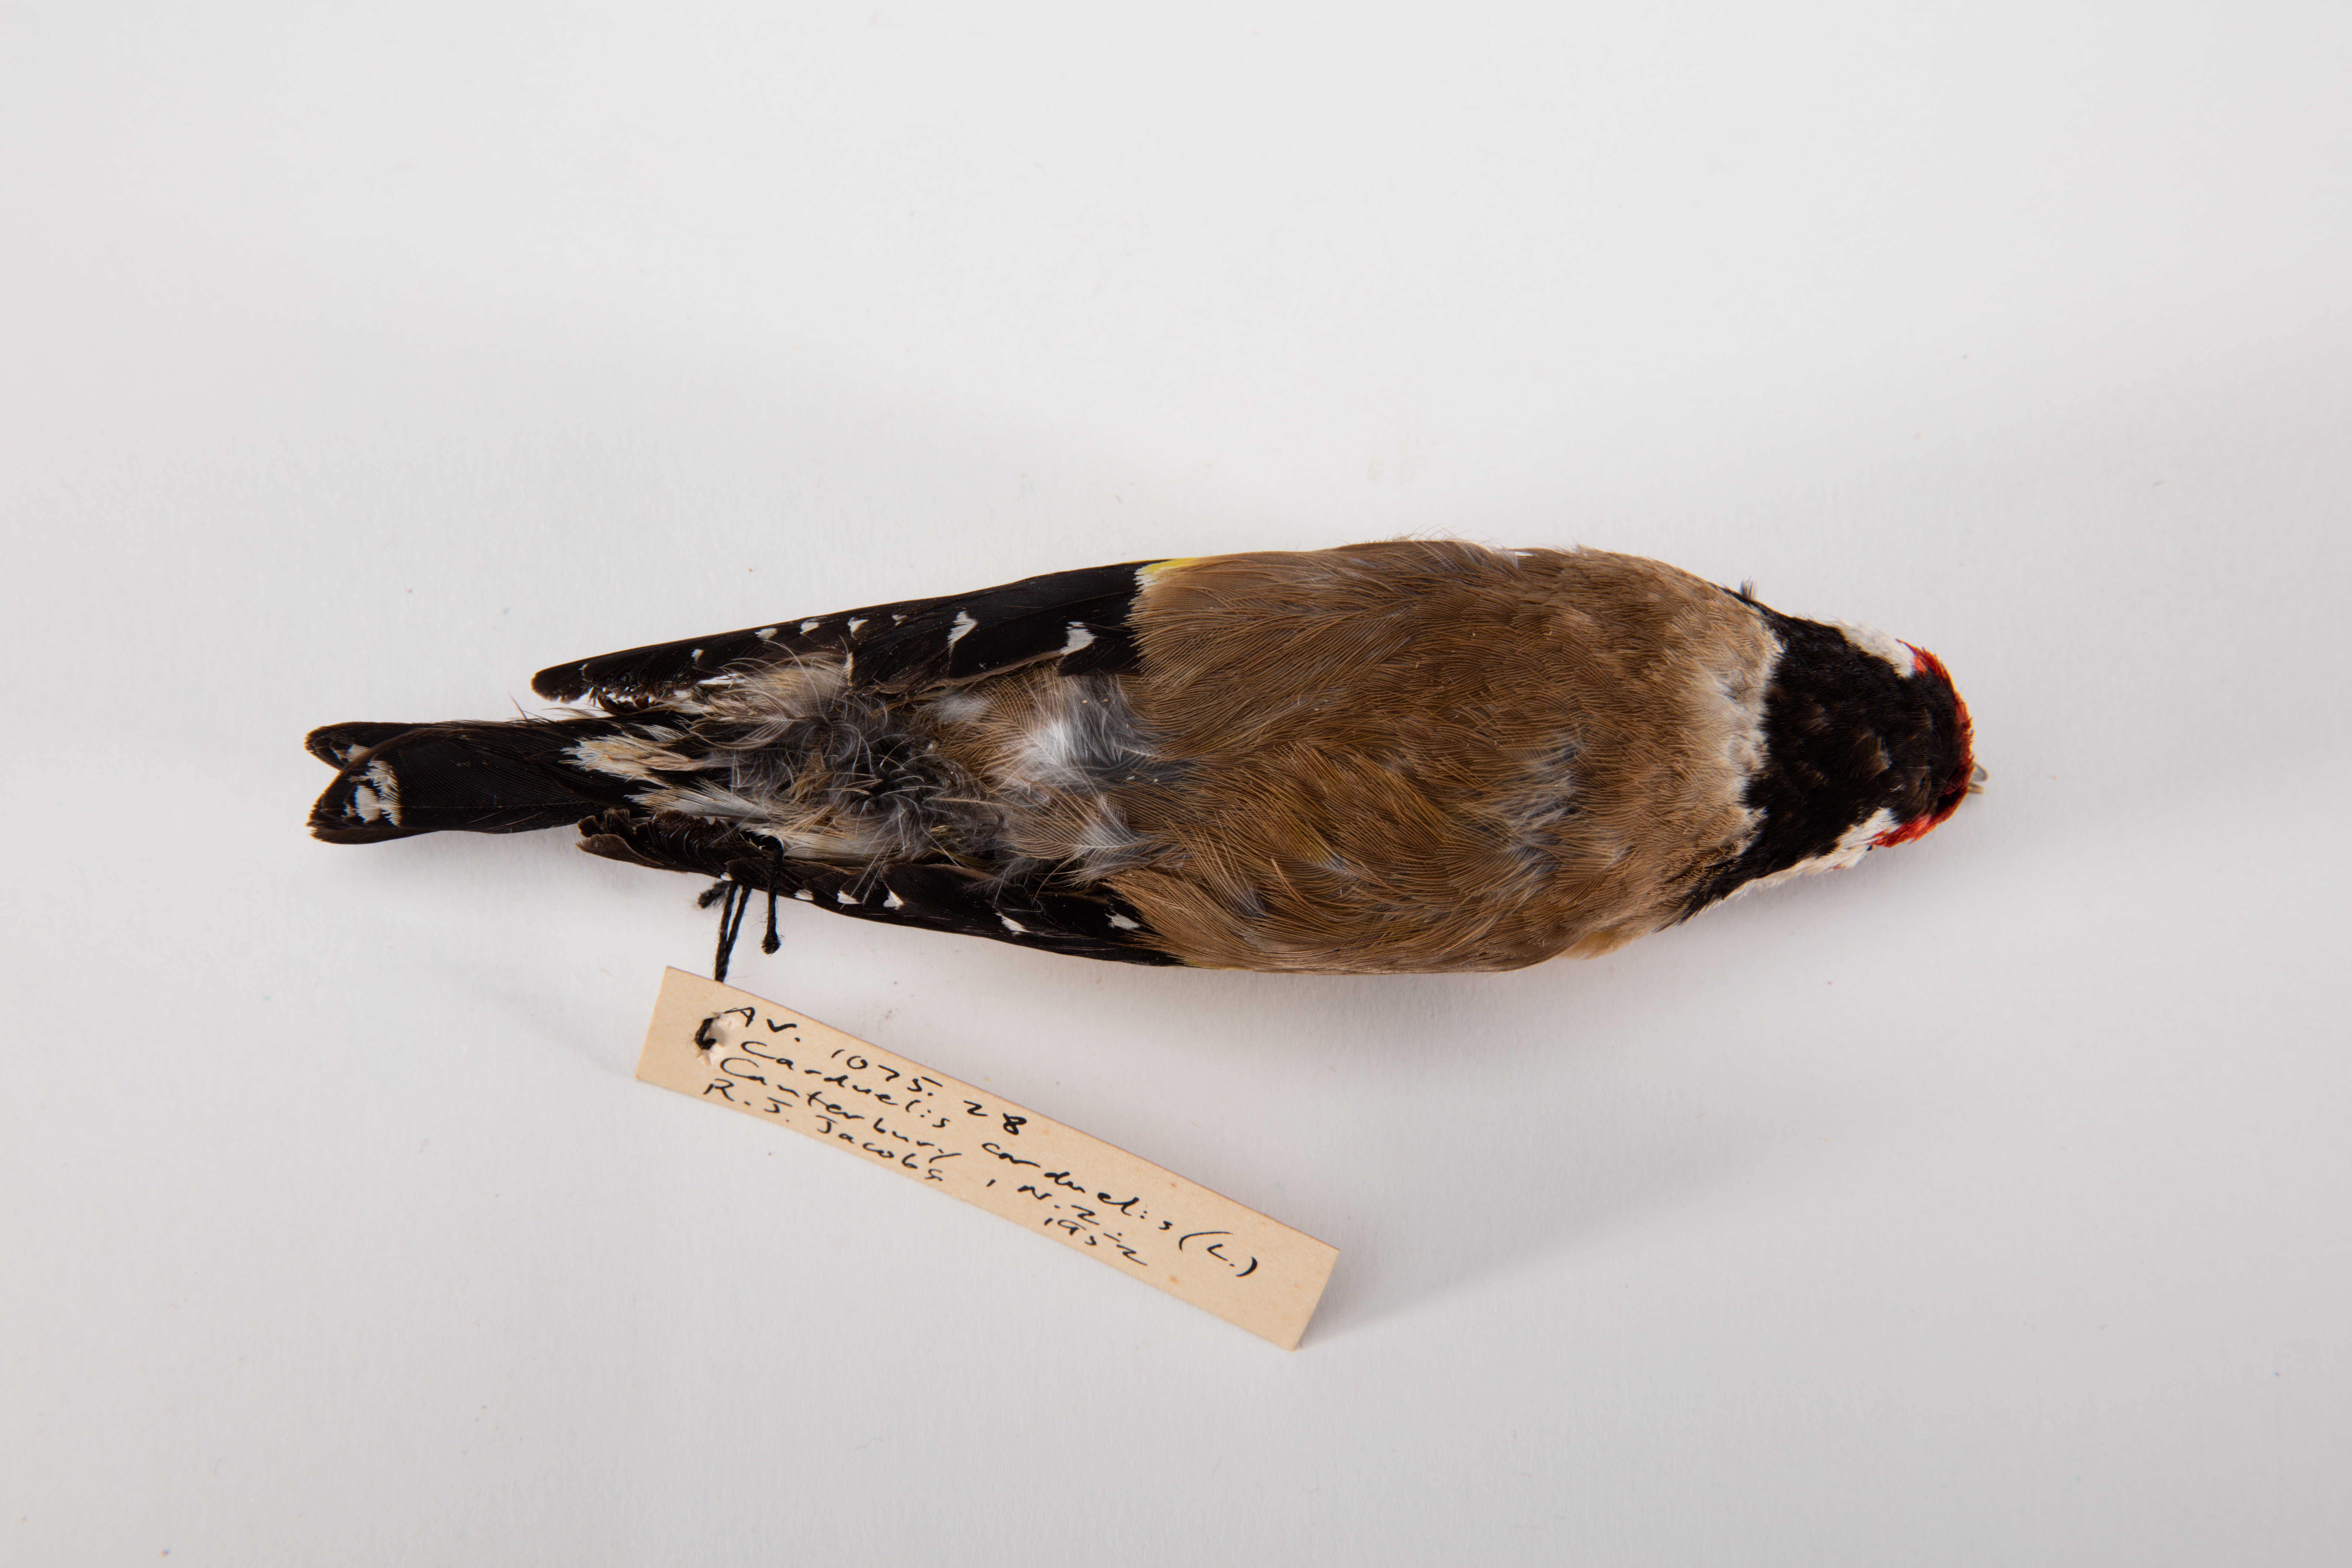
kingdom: Animalia
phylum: Chordata
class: Aves
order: Passeriformes
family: Fringillidae
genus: Carduelis
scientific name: Carduelis carduelis
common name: European goldfinch
